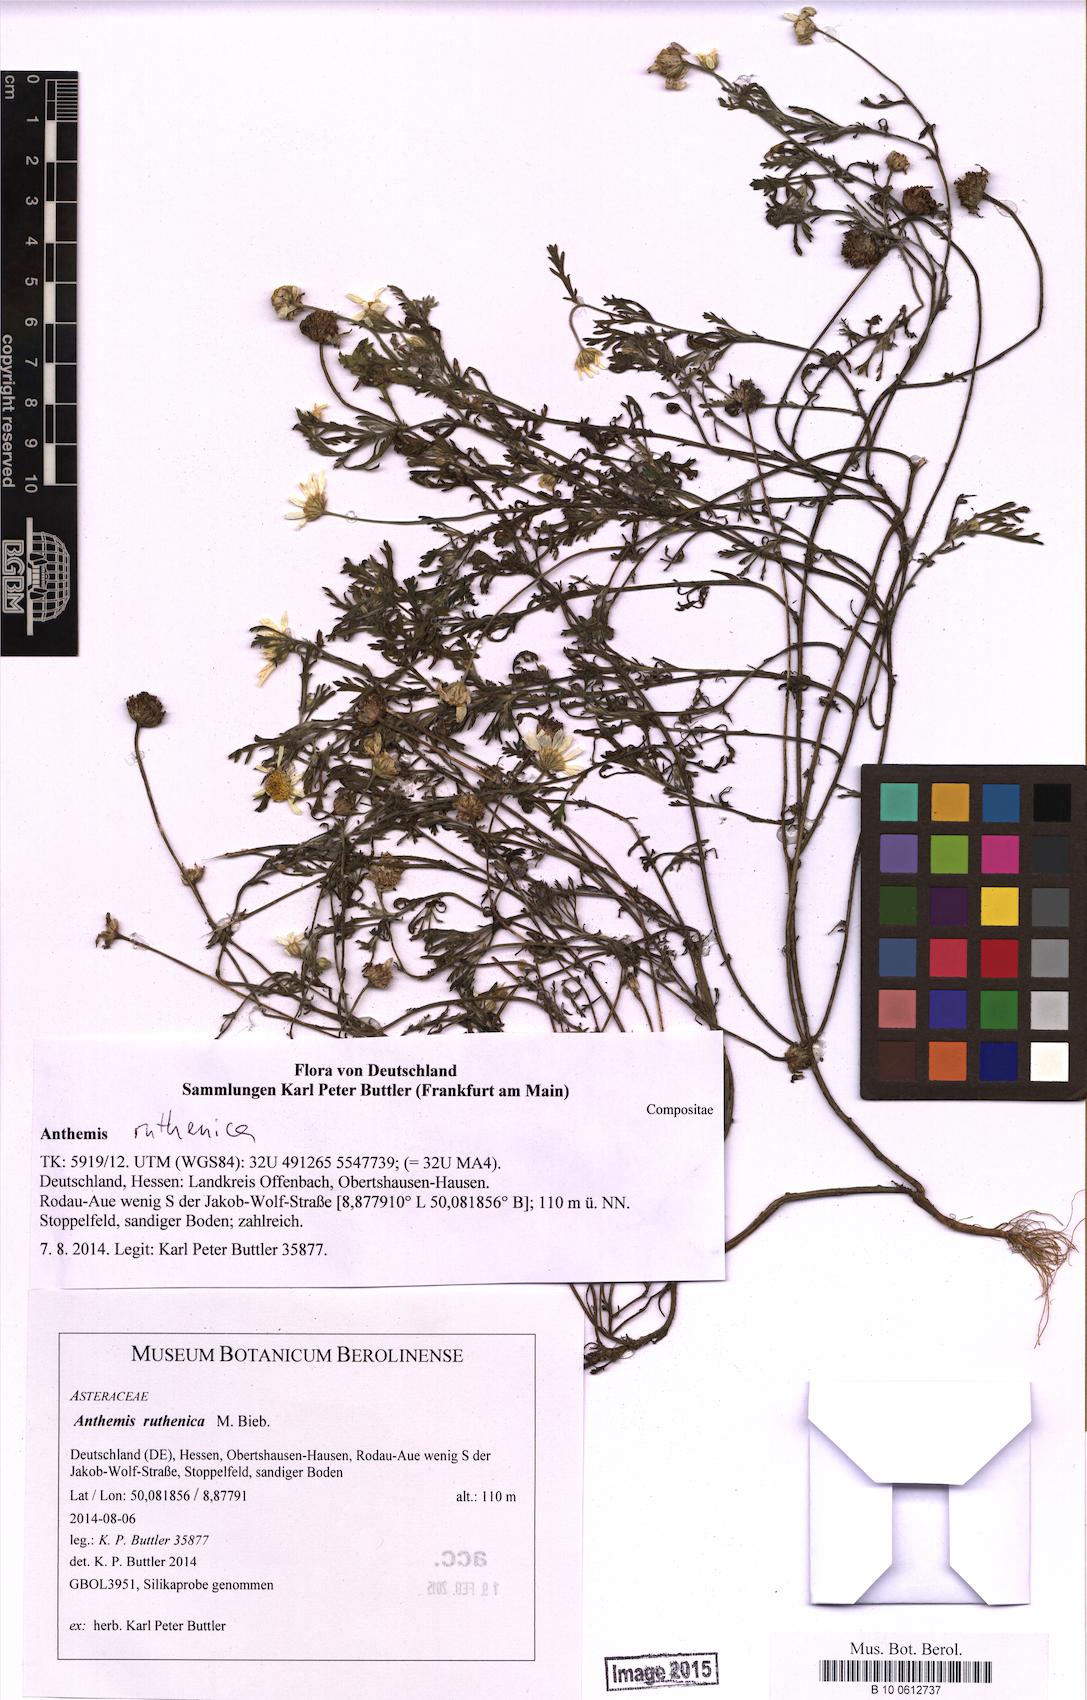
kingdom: Plantae
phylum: Tracheophyta
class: Magnoliopsida
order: Asterales
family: Asteraceae
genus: Anthemis
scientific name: Anthemis ruthenica
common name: Eastern chamomile
